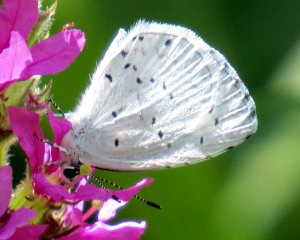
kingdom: Animalia
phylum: Arthropoda
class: Insecta
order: Lepidoptera
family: Lycaenidae
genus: Cyaniris
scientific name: Cyaniris neglecta
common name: Summer Azure
